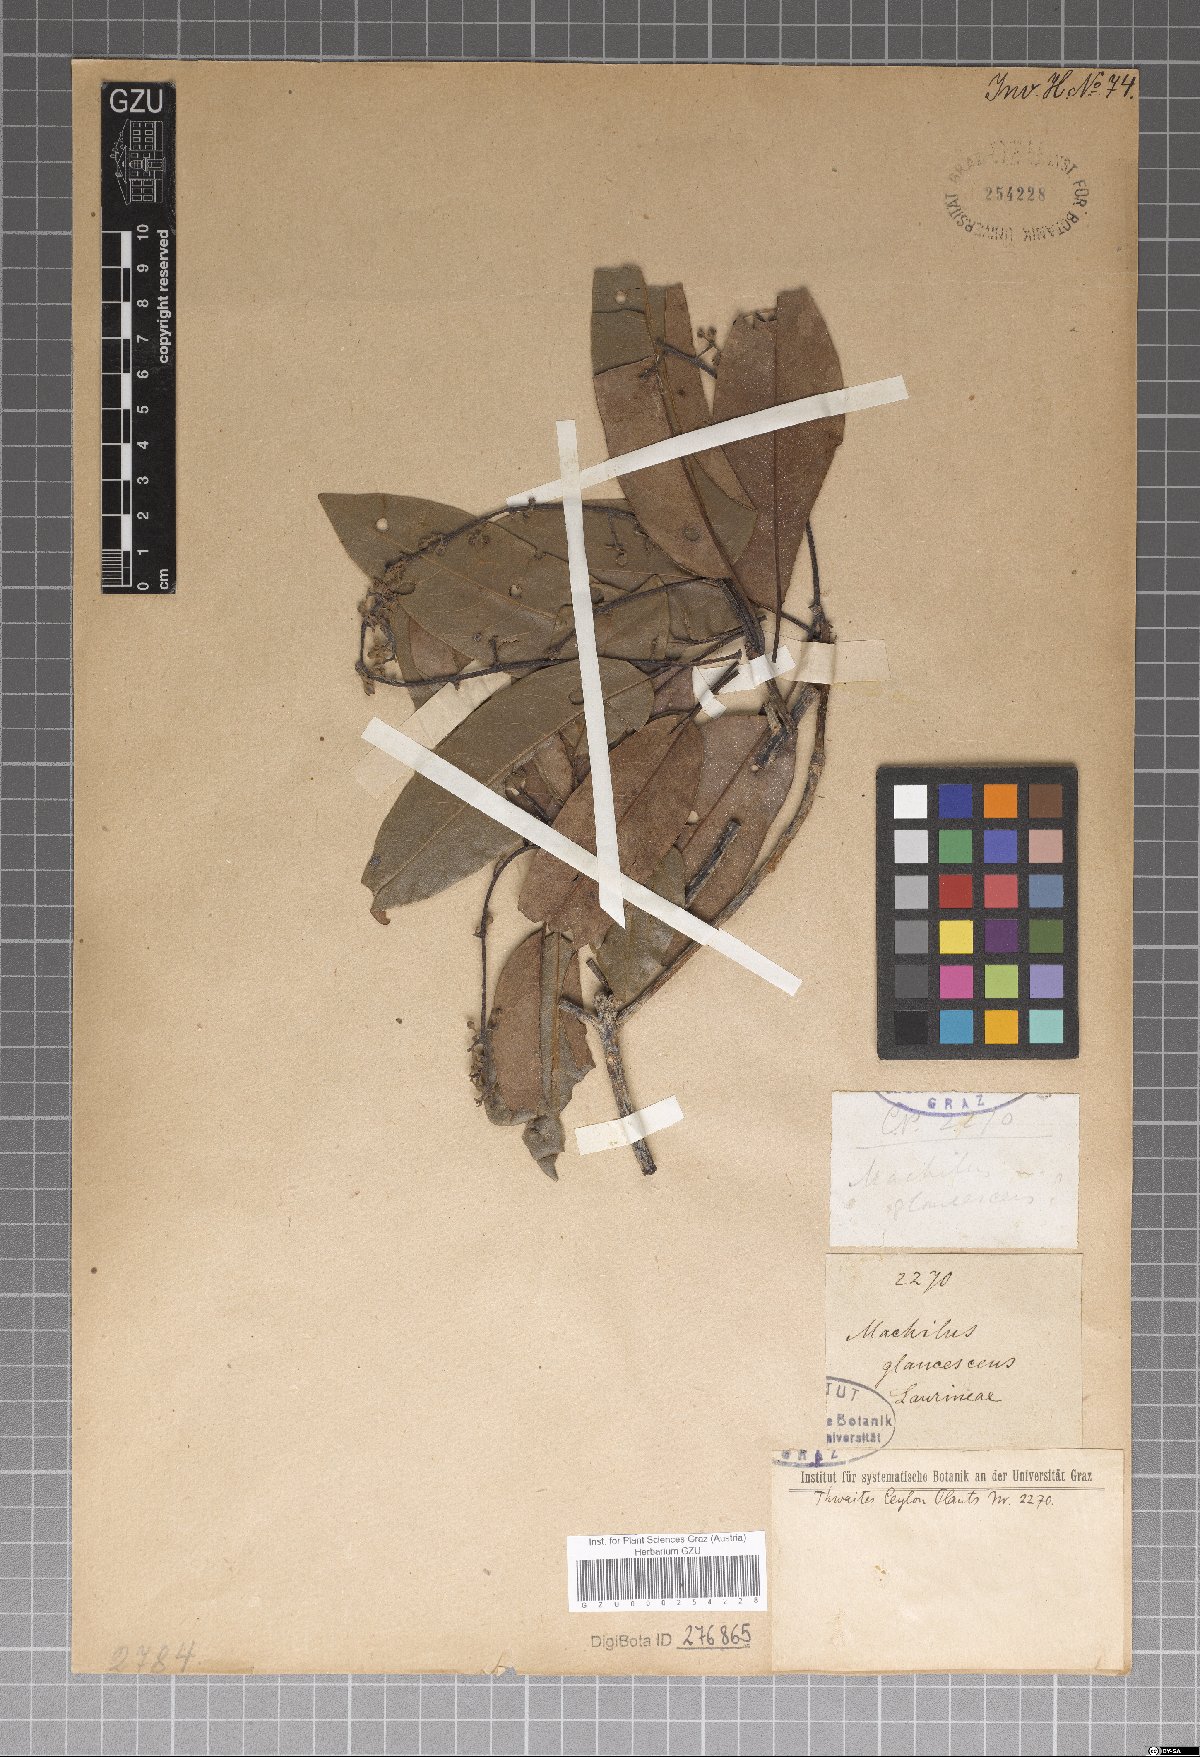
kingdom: Plantae
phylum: Tracheophyta
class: Magnoliopsida
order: Laurales
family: Lauraceae
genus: Machilus
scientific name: Machilus glaucescens
